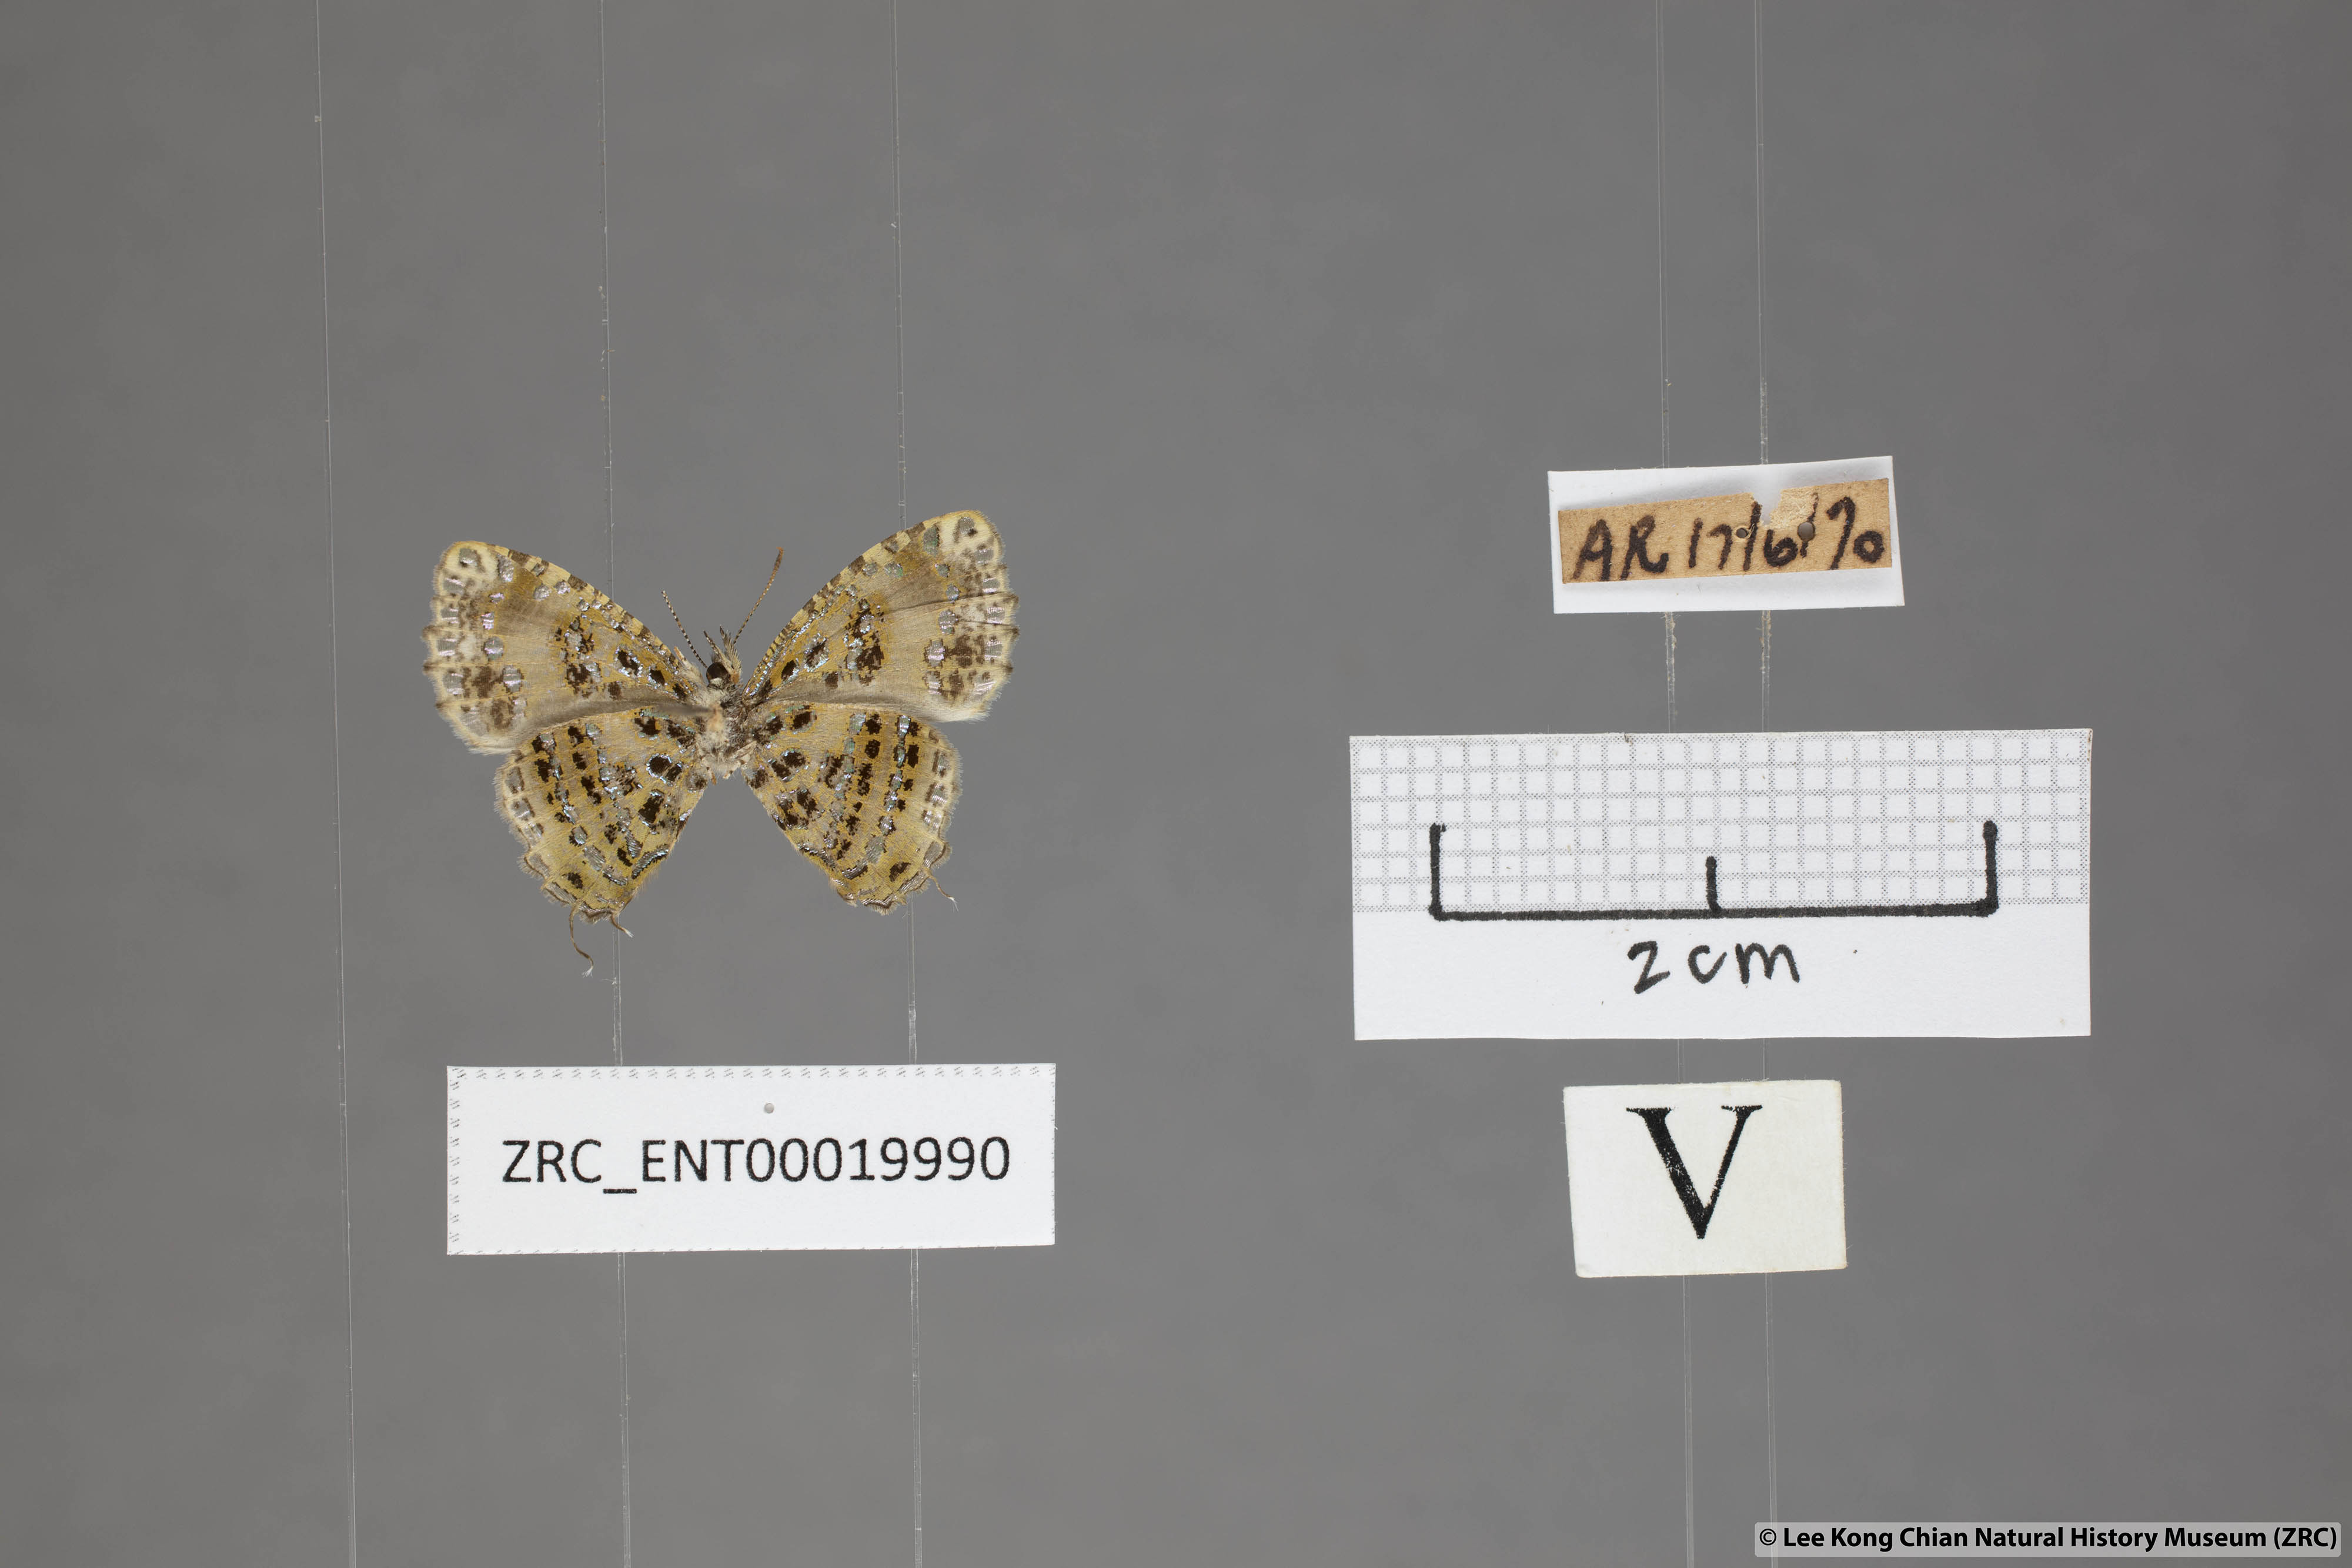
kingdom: Animalia
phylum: Arthropoda
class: Insecta
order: Lepidoptera
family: Lycaenidae
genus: Catapaecilma
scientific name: Catapaecilma elegans
